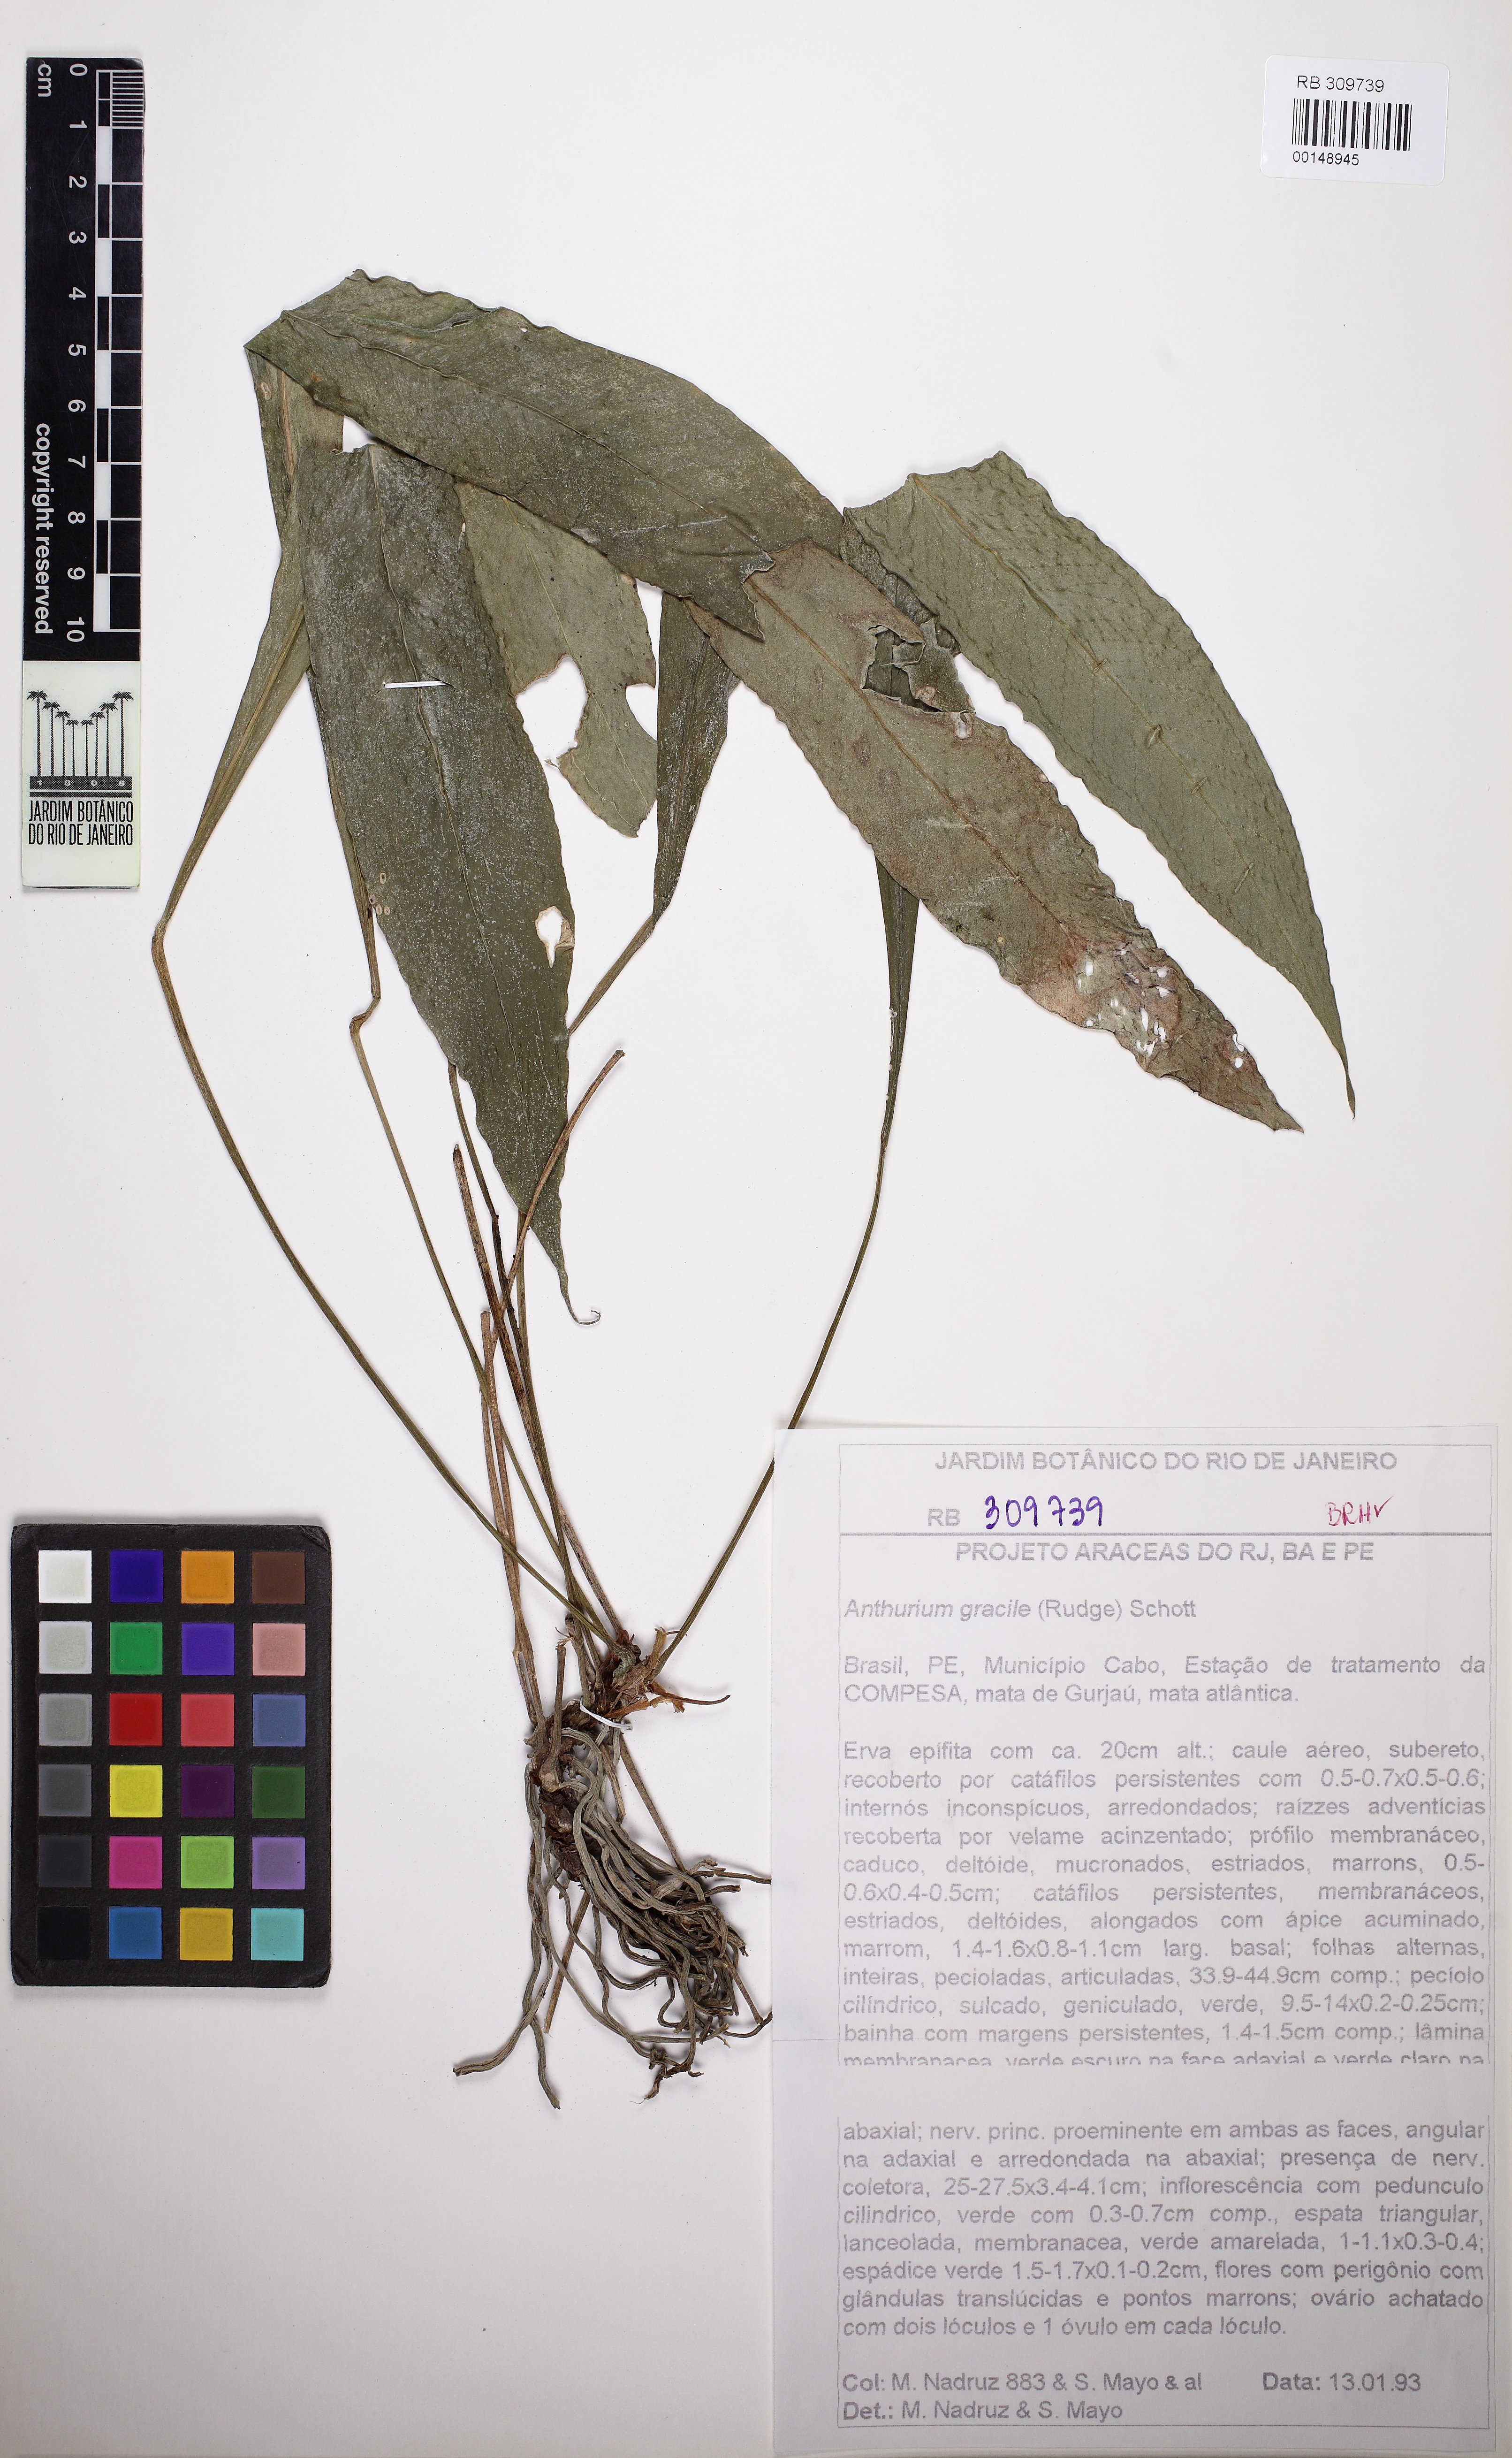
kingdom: Plantae
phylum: Tracheophyta
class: Liliopsida
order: Alismatales
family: Araceae
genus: Anthurium
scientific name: Anthurium gracile
